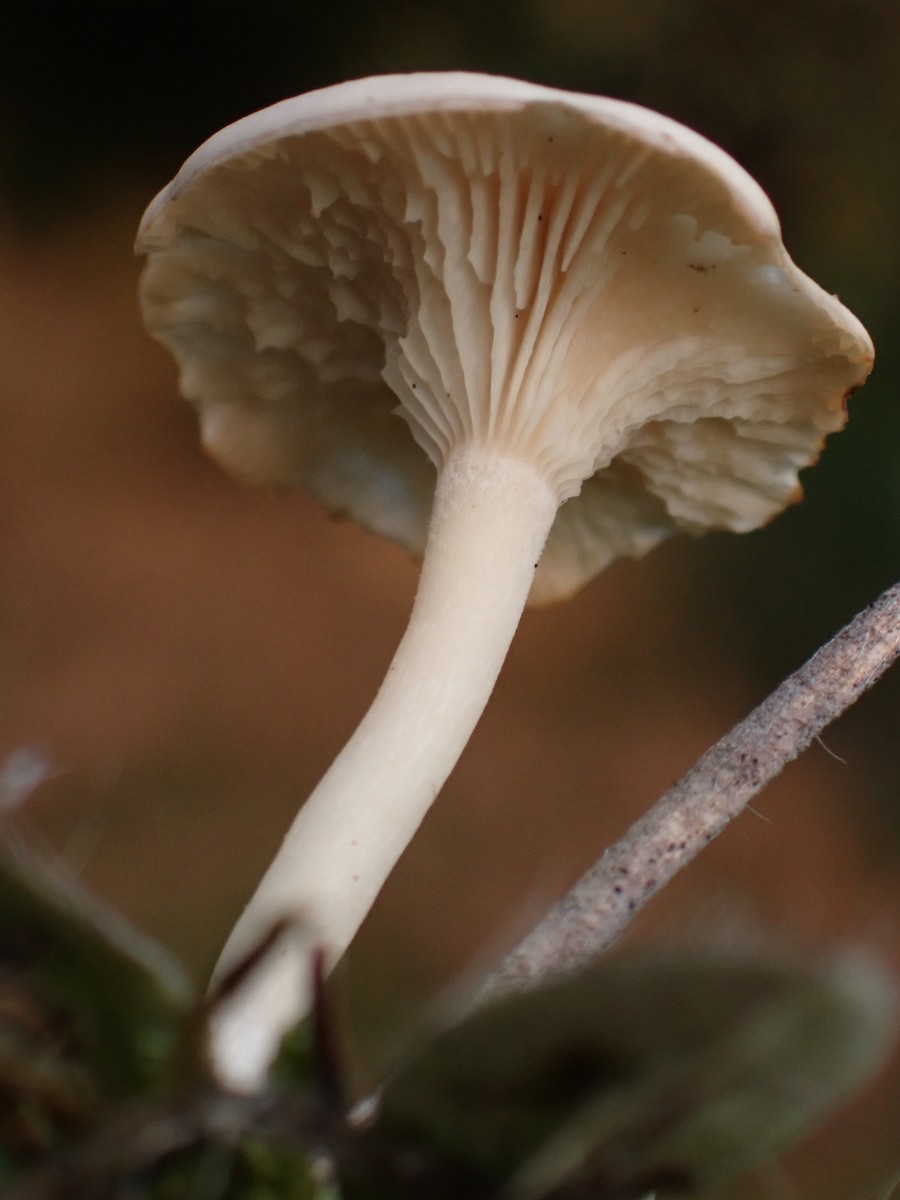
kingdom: Fungi
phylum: Basidiomycota
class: Agaricomycetes
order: Agaricales
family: Hygrophoraceae
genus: Cuphophyllus
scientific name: Cuphophyllus virgineus
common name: snehvid vokshat
